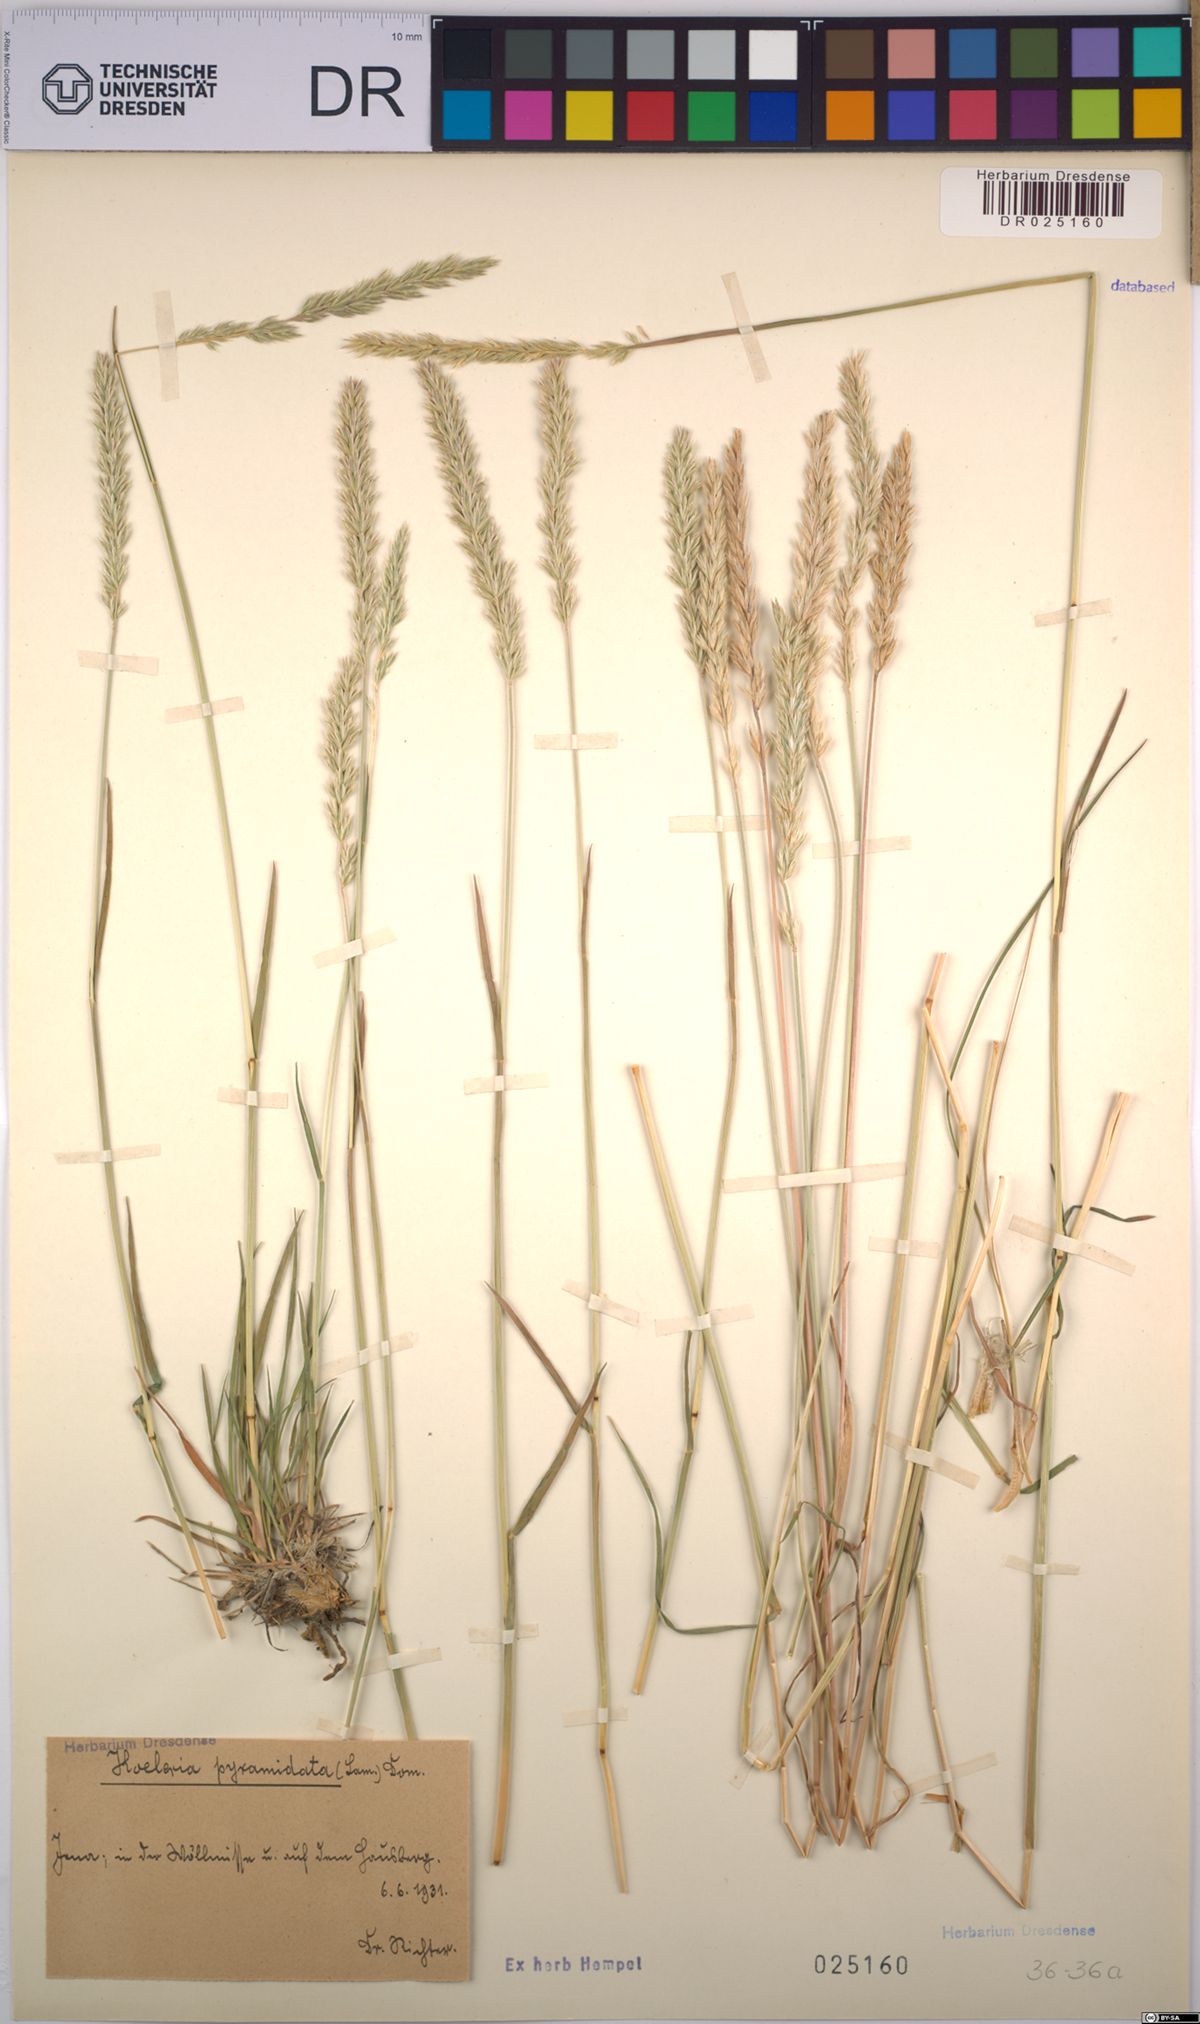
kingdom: Plantae
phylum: Tracheophyta
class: Liliopsida
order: Poales
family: Poaceae
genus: Koeleria
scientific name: Koeleria pyramidata
